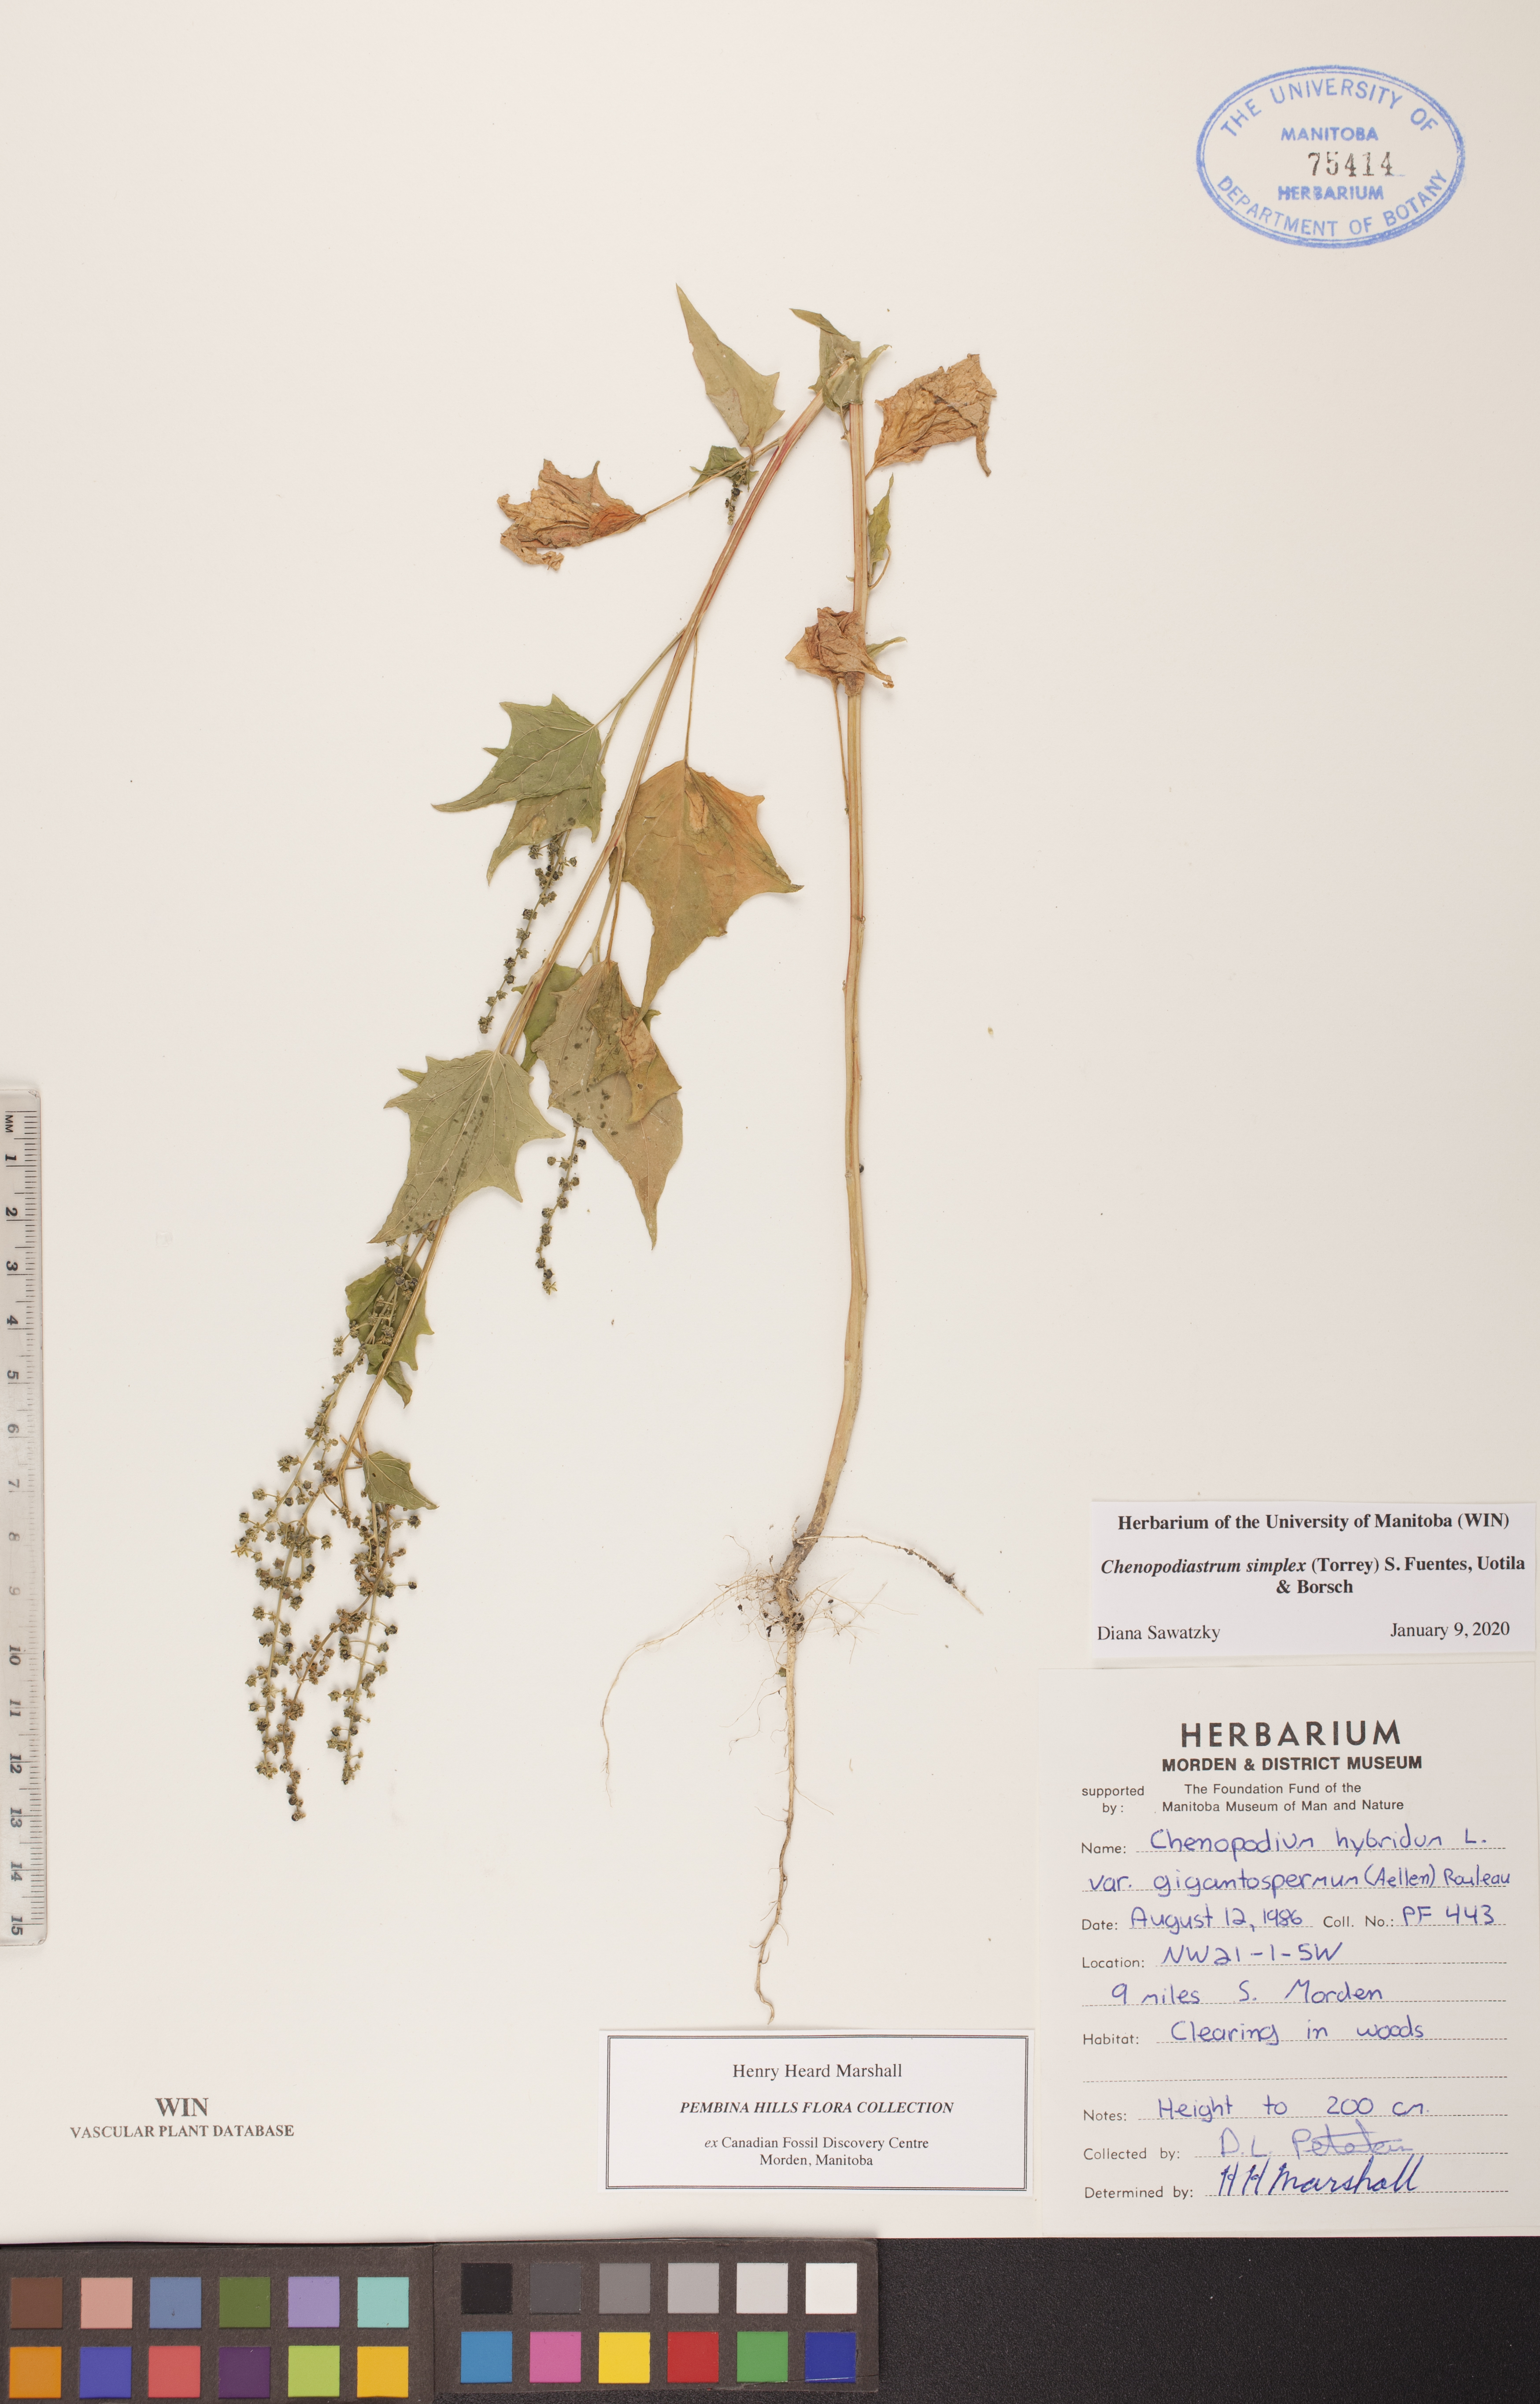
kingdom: Plantae
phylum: Tracheophyta
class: Magnoliopsida
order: Caryophyllales
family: Amaranthaceae
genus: Chenopodiastrum
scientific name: Chenopodiastrum simplex
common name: Large-seed goosefoot
